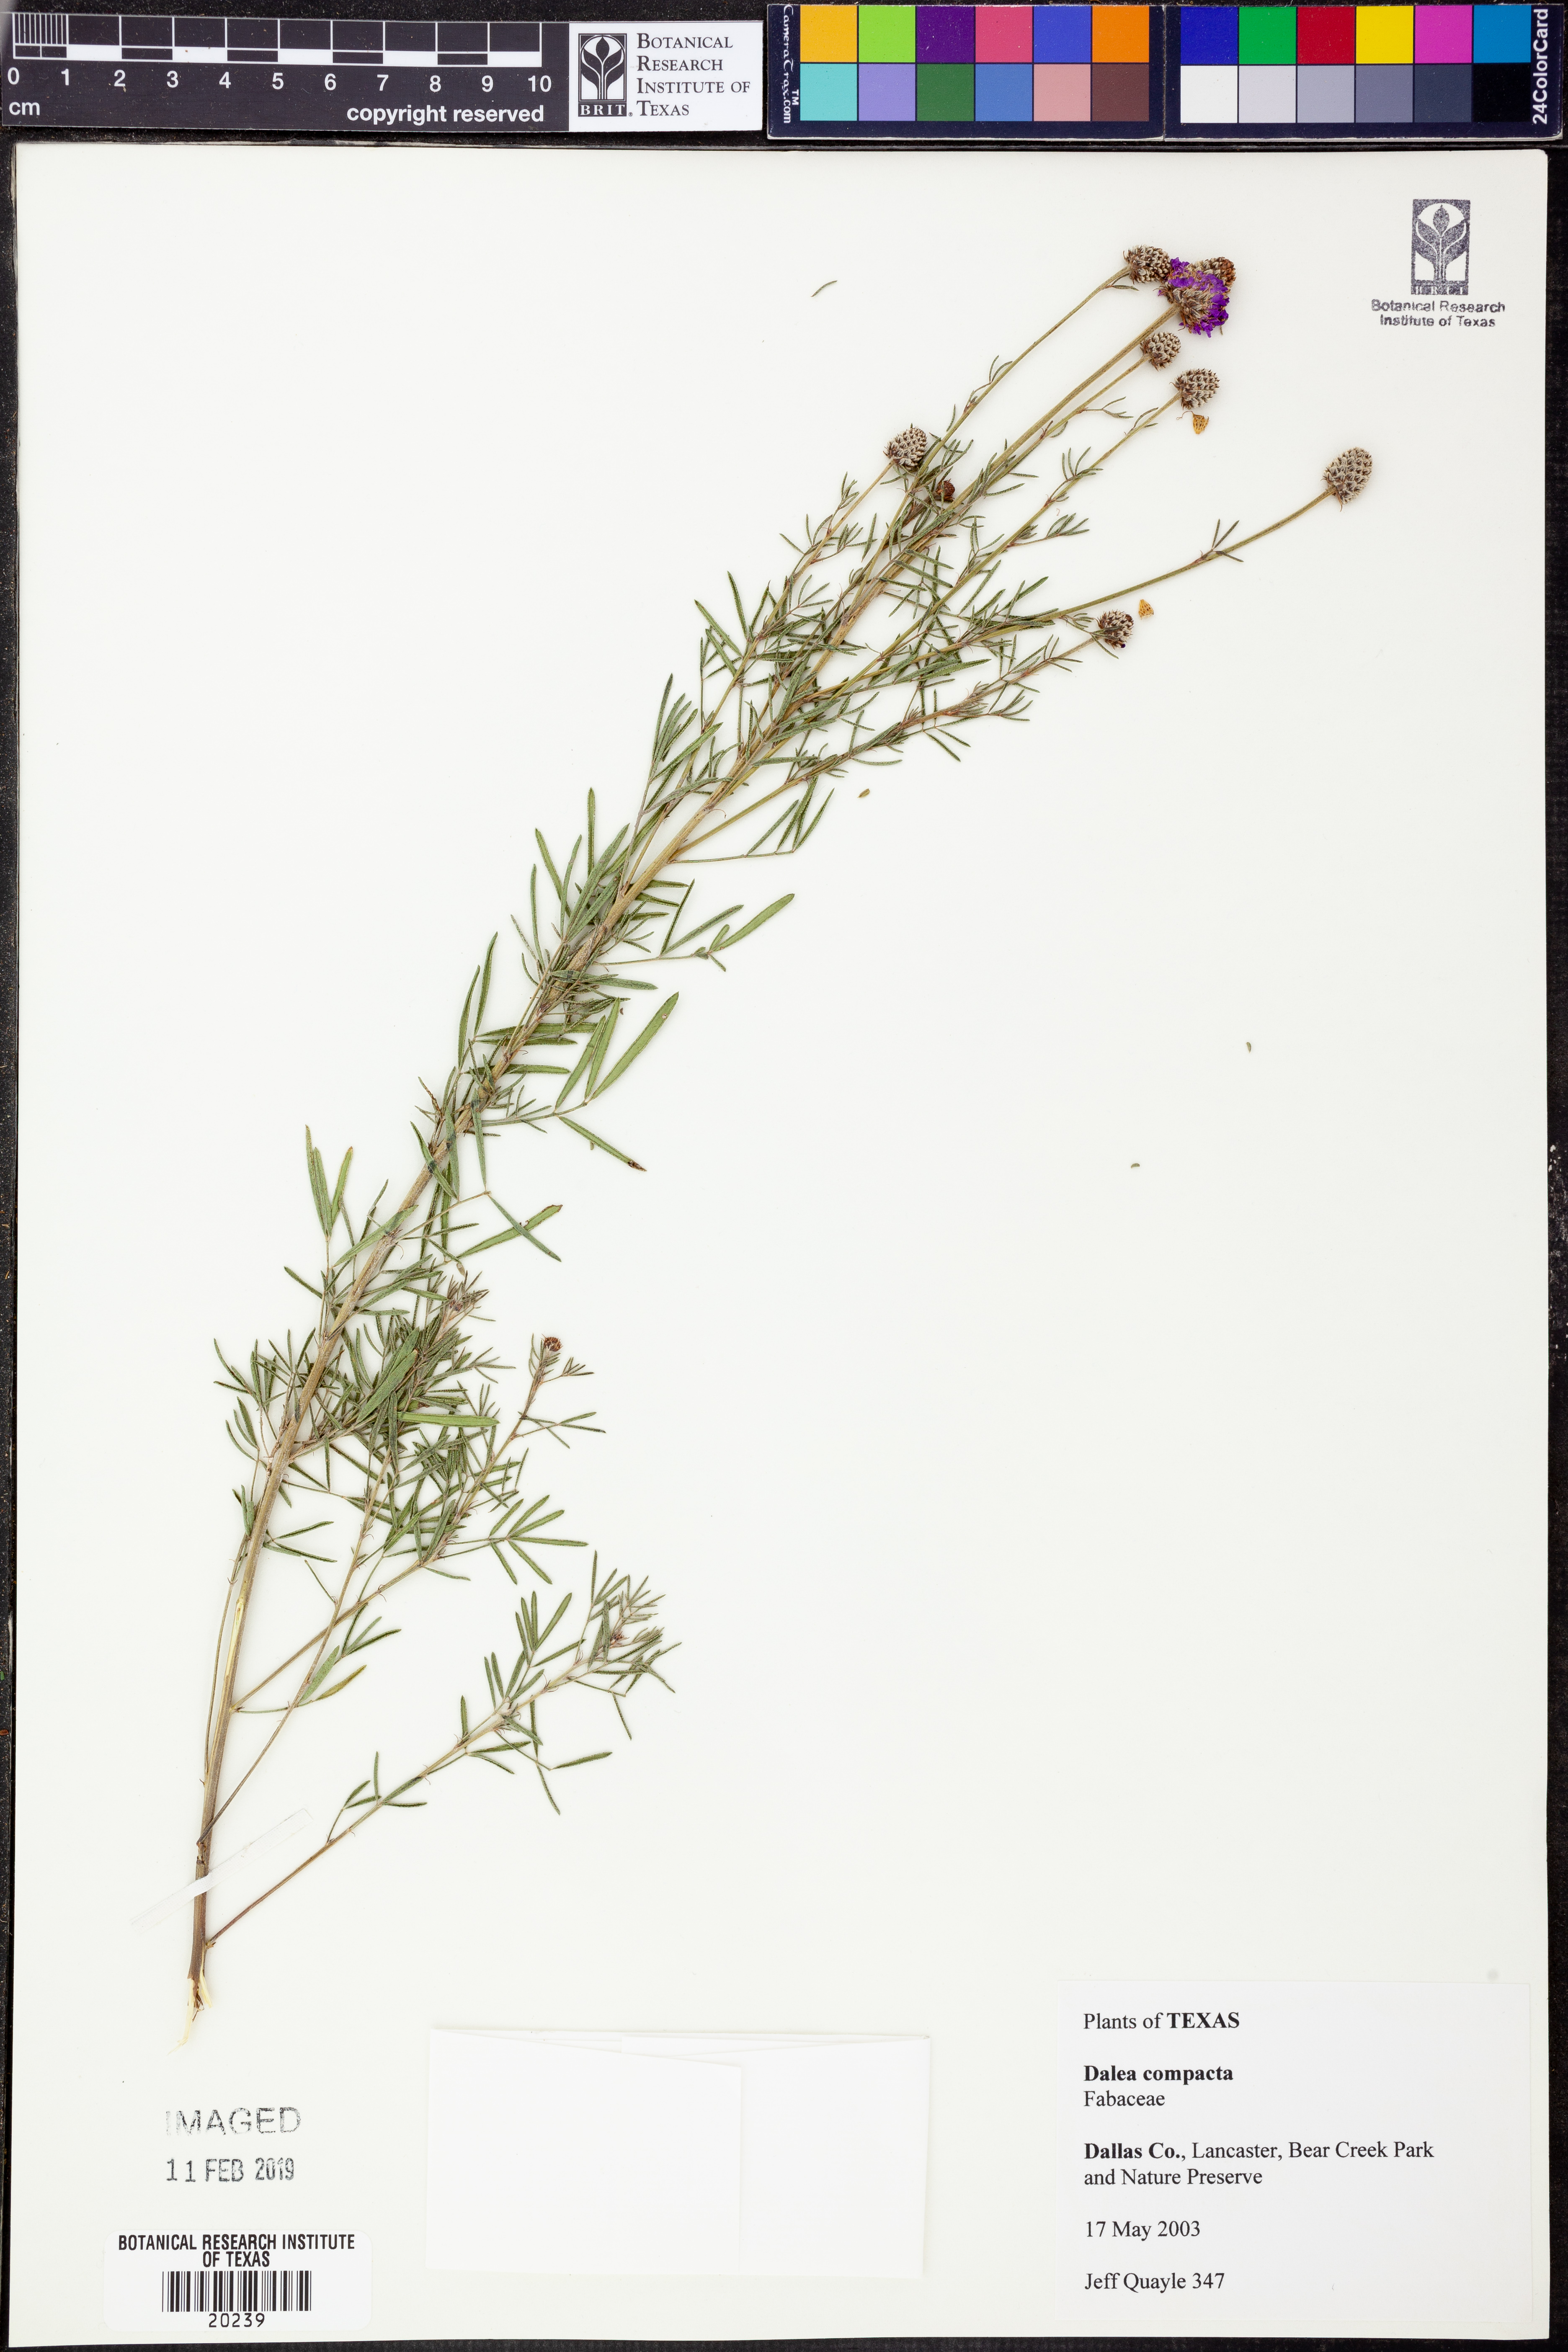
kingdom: Plantae
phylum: Tracheophyta
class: Magnoliopsida
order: Fabales
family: Fabaceae
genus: Dalea
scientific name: Dalea compacta
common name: Compact prairie-clover
